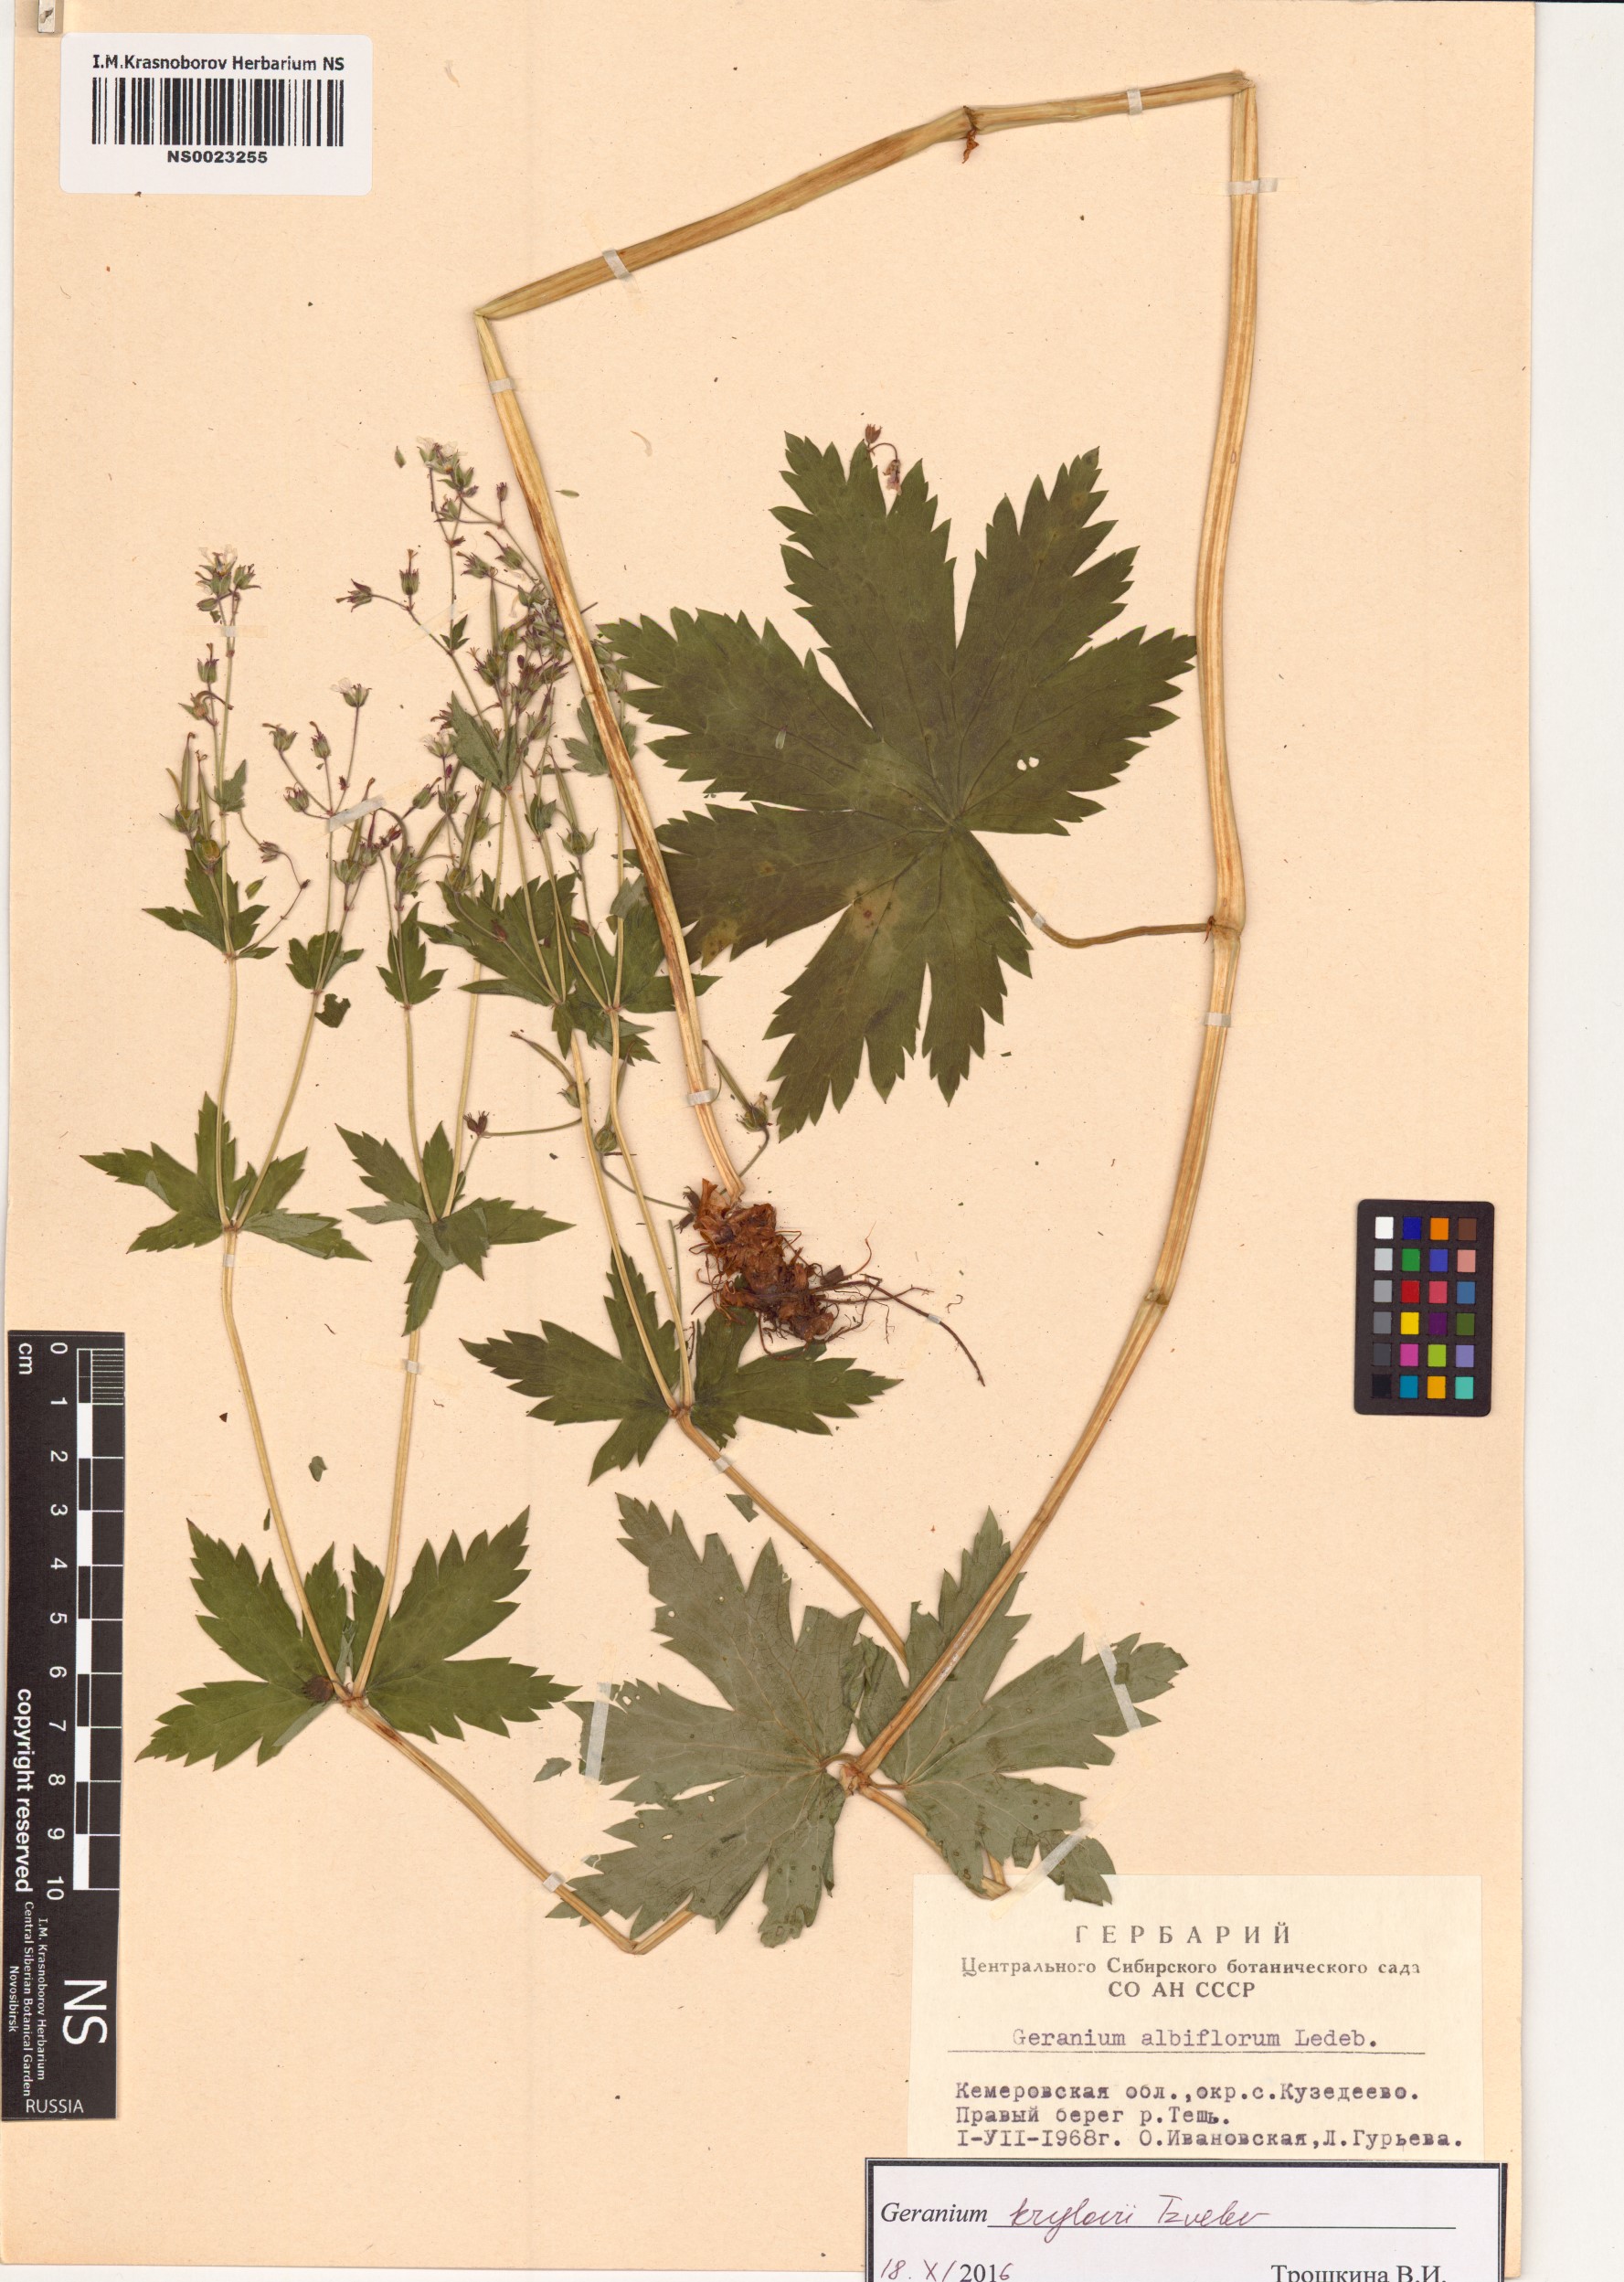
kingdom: Plantae
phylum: Tracheophyta
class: Magnoliopsida
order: Geraniales
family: Geraniaceae
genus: Geranium
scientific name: Geranium sylvaticum
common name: Wood crane's-bill
